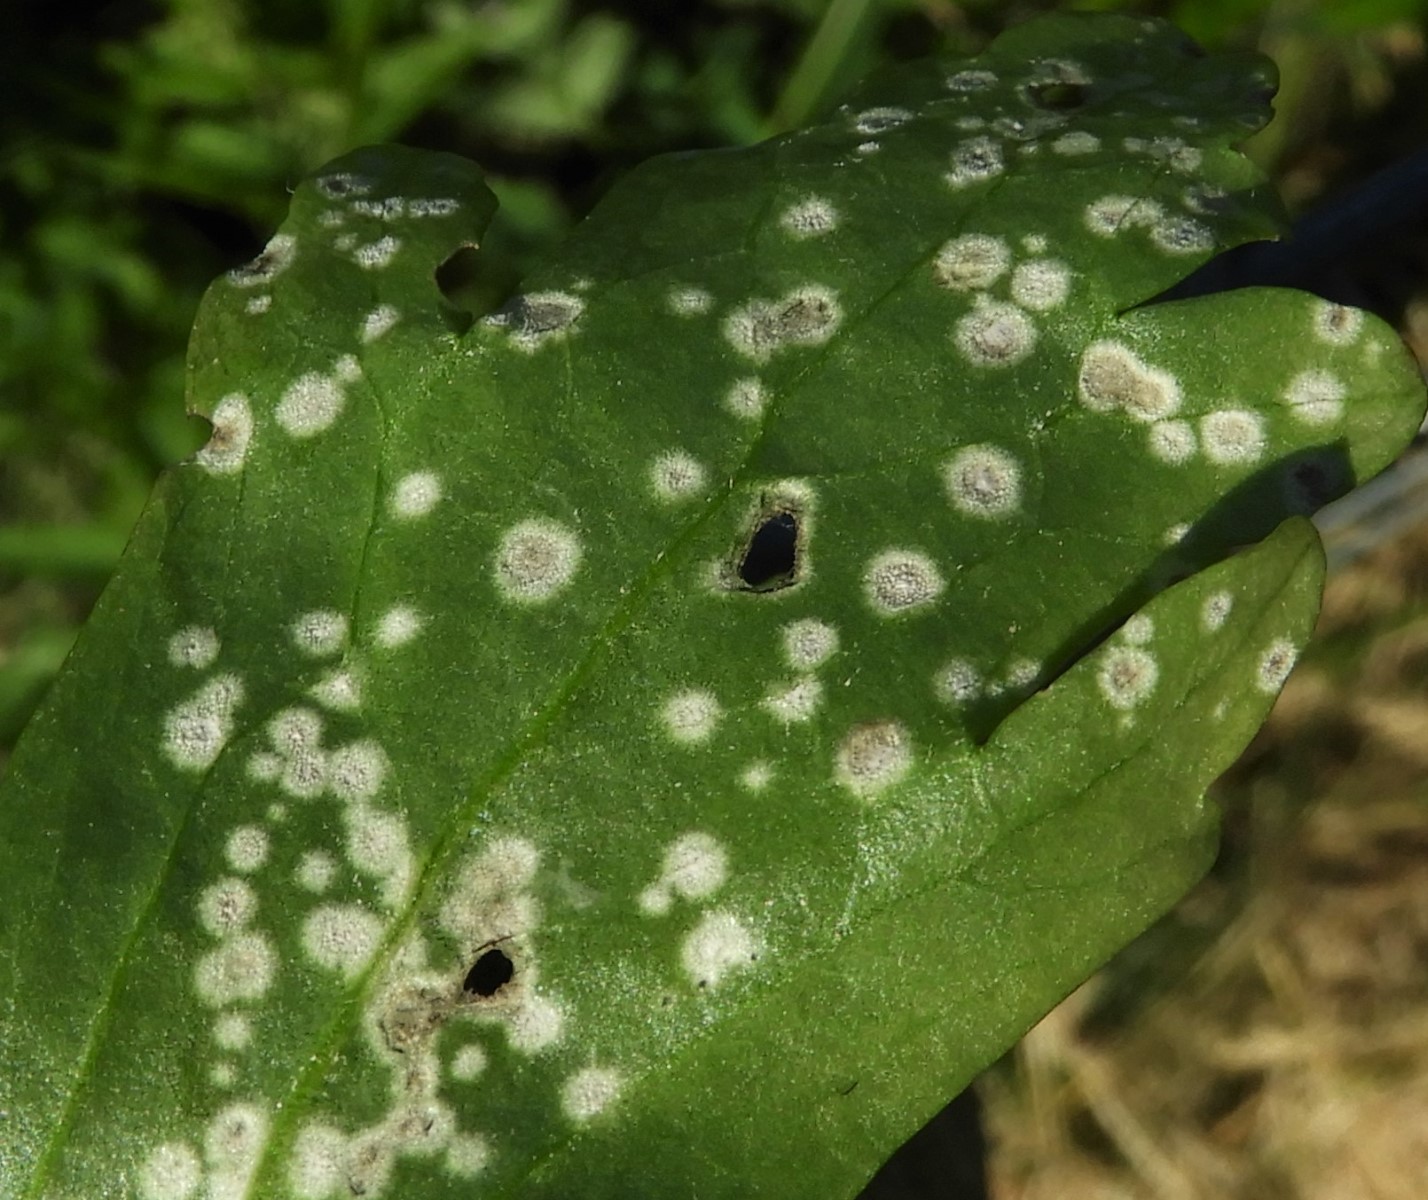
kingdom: Fungi
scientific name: Fungi
